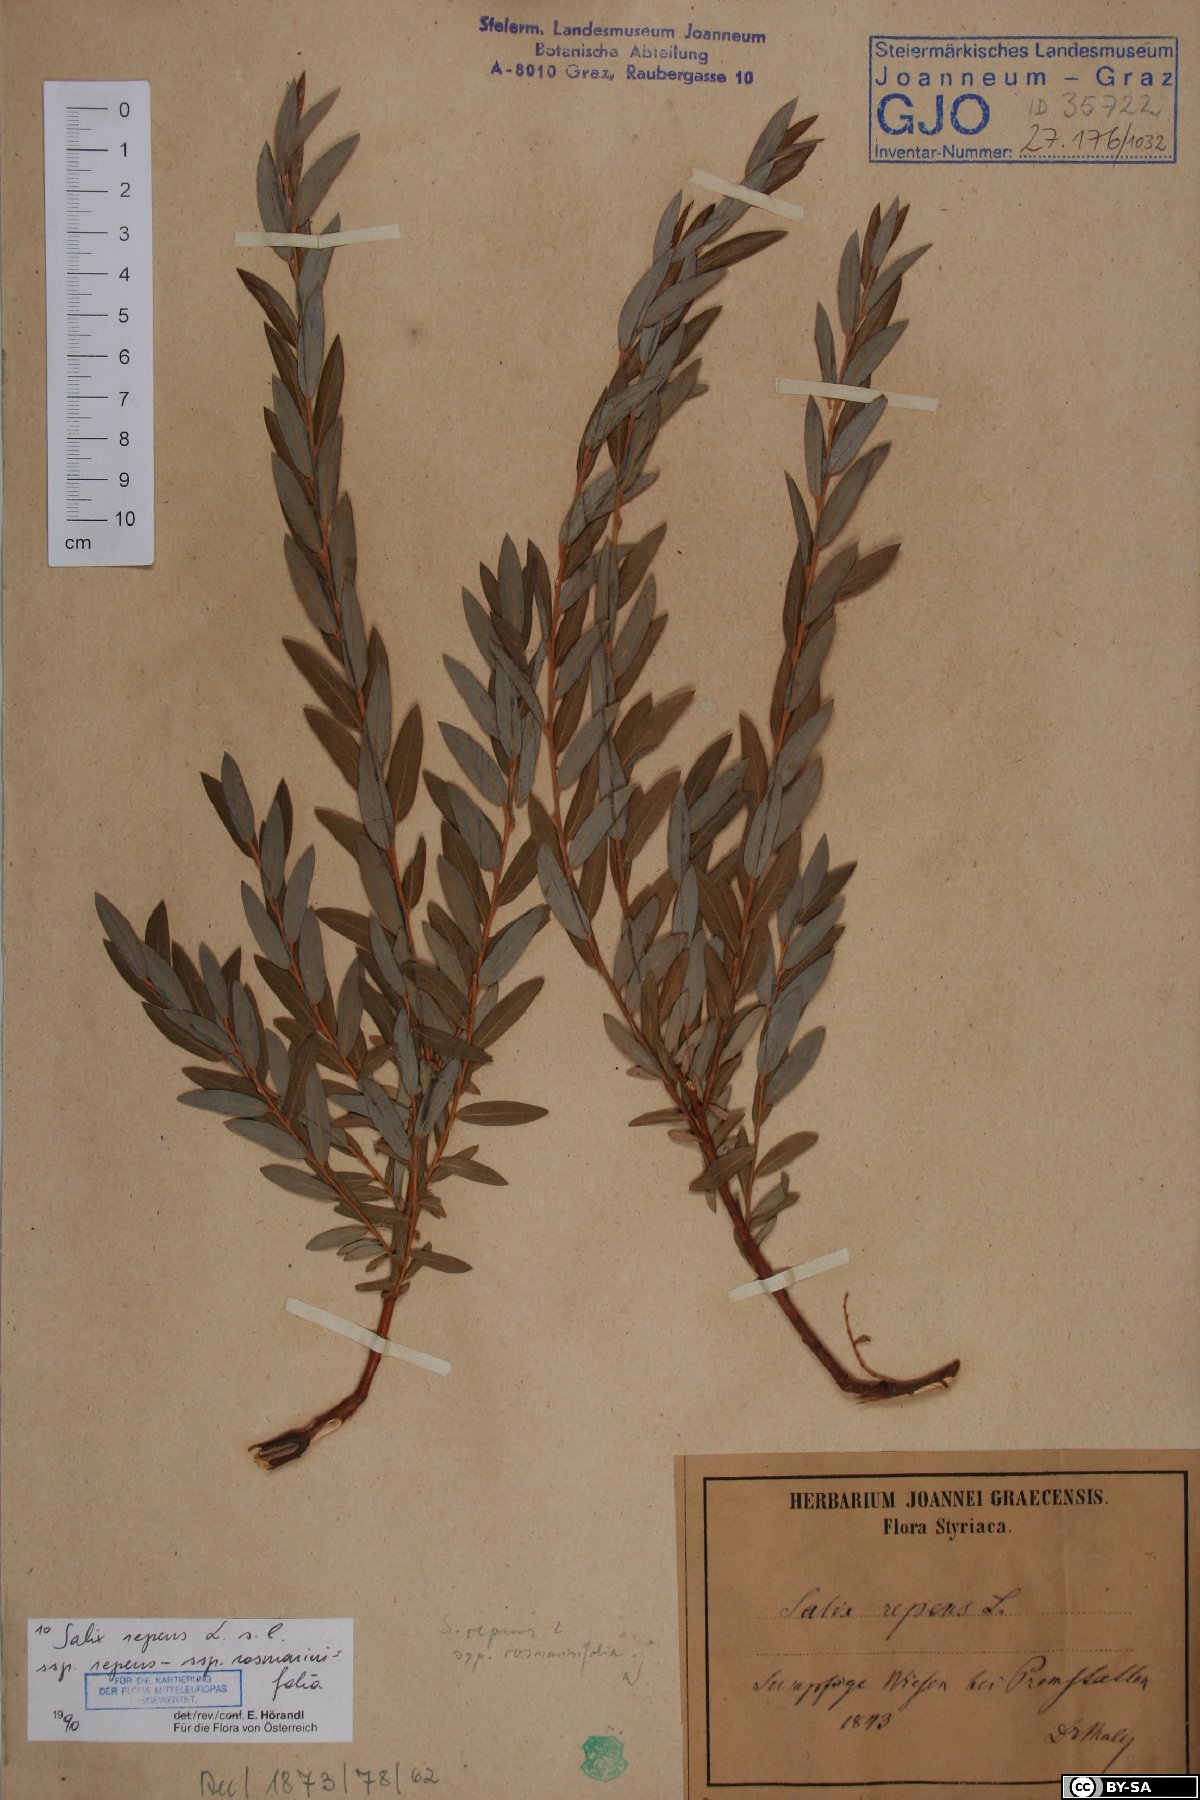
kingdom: Plantae
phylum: Tracheophyta
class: Magnoliopsida
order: Malpighiales
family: Salicaceae
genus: Salix
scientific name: Salix repens
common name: Creeping willow
